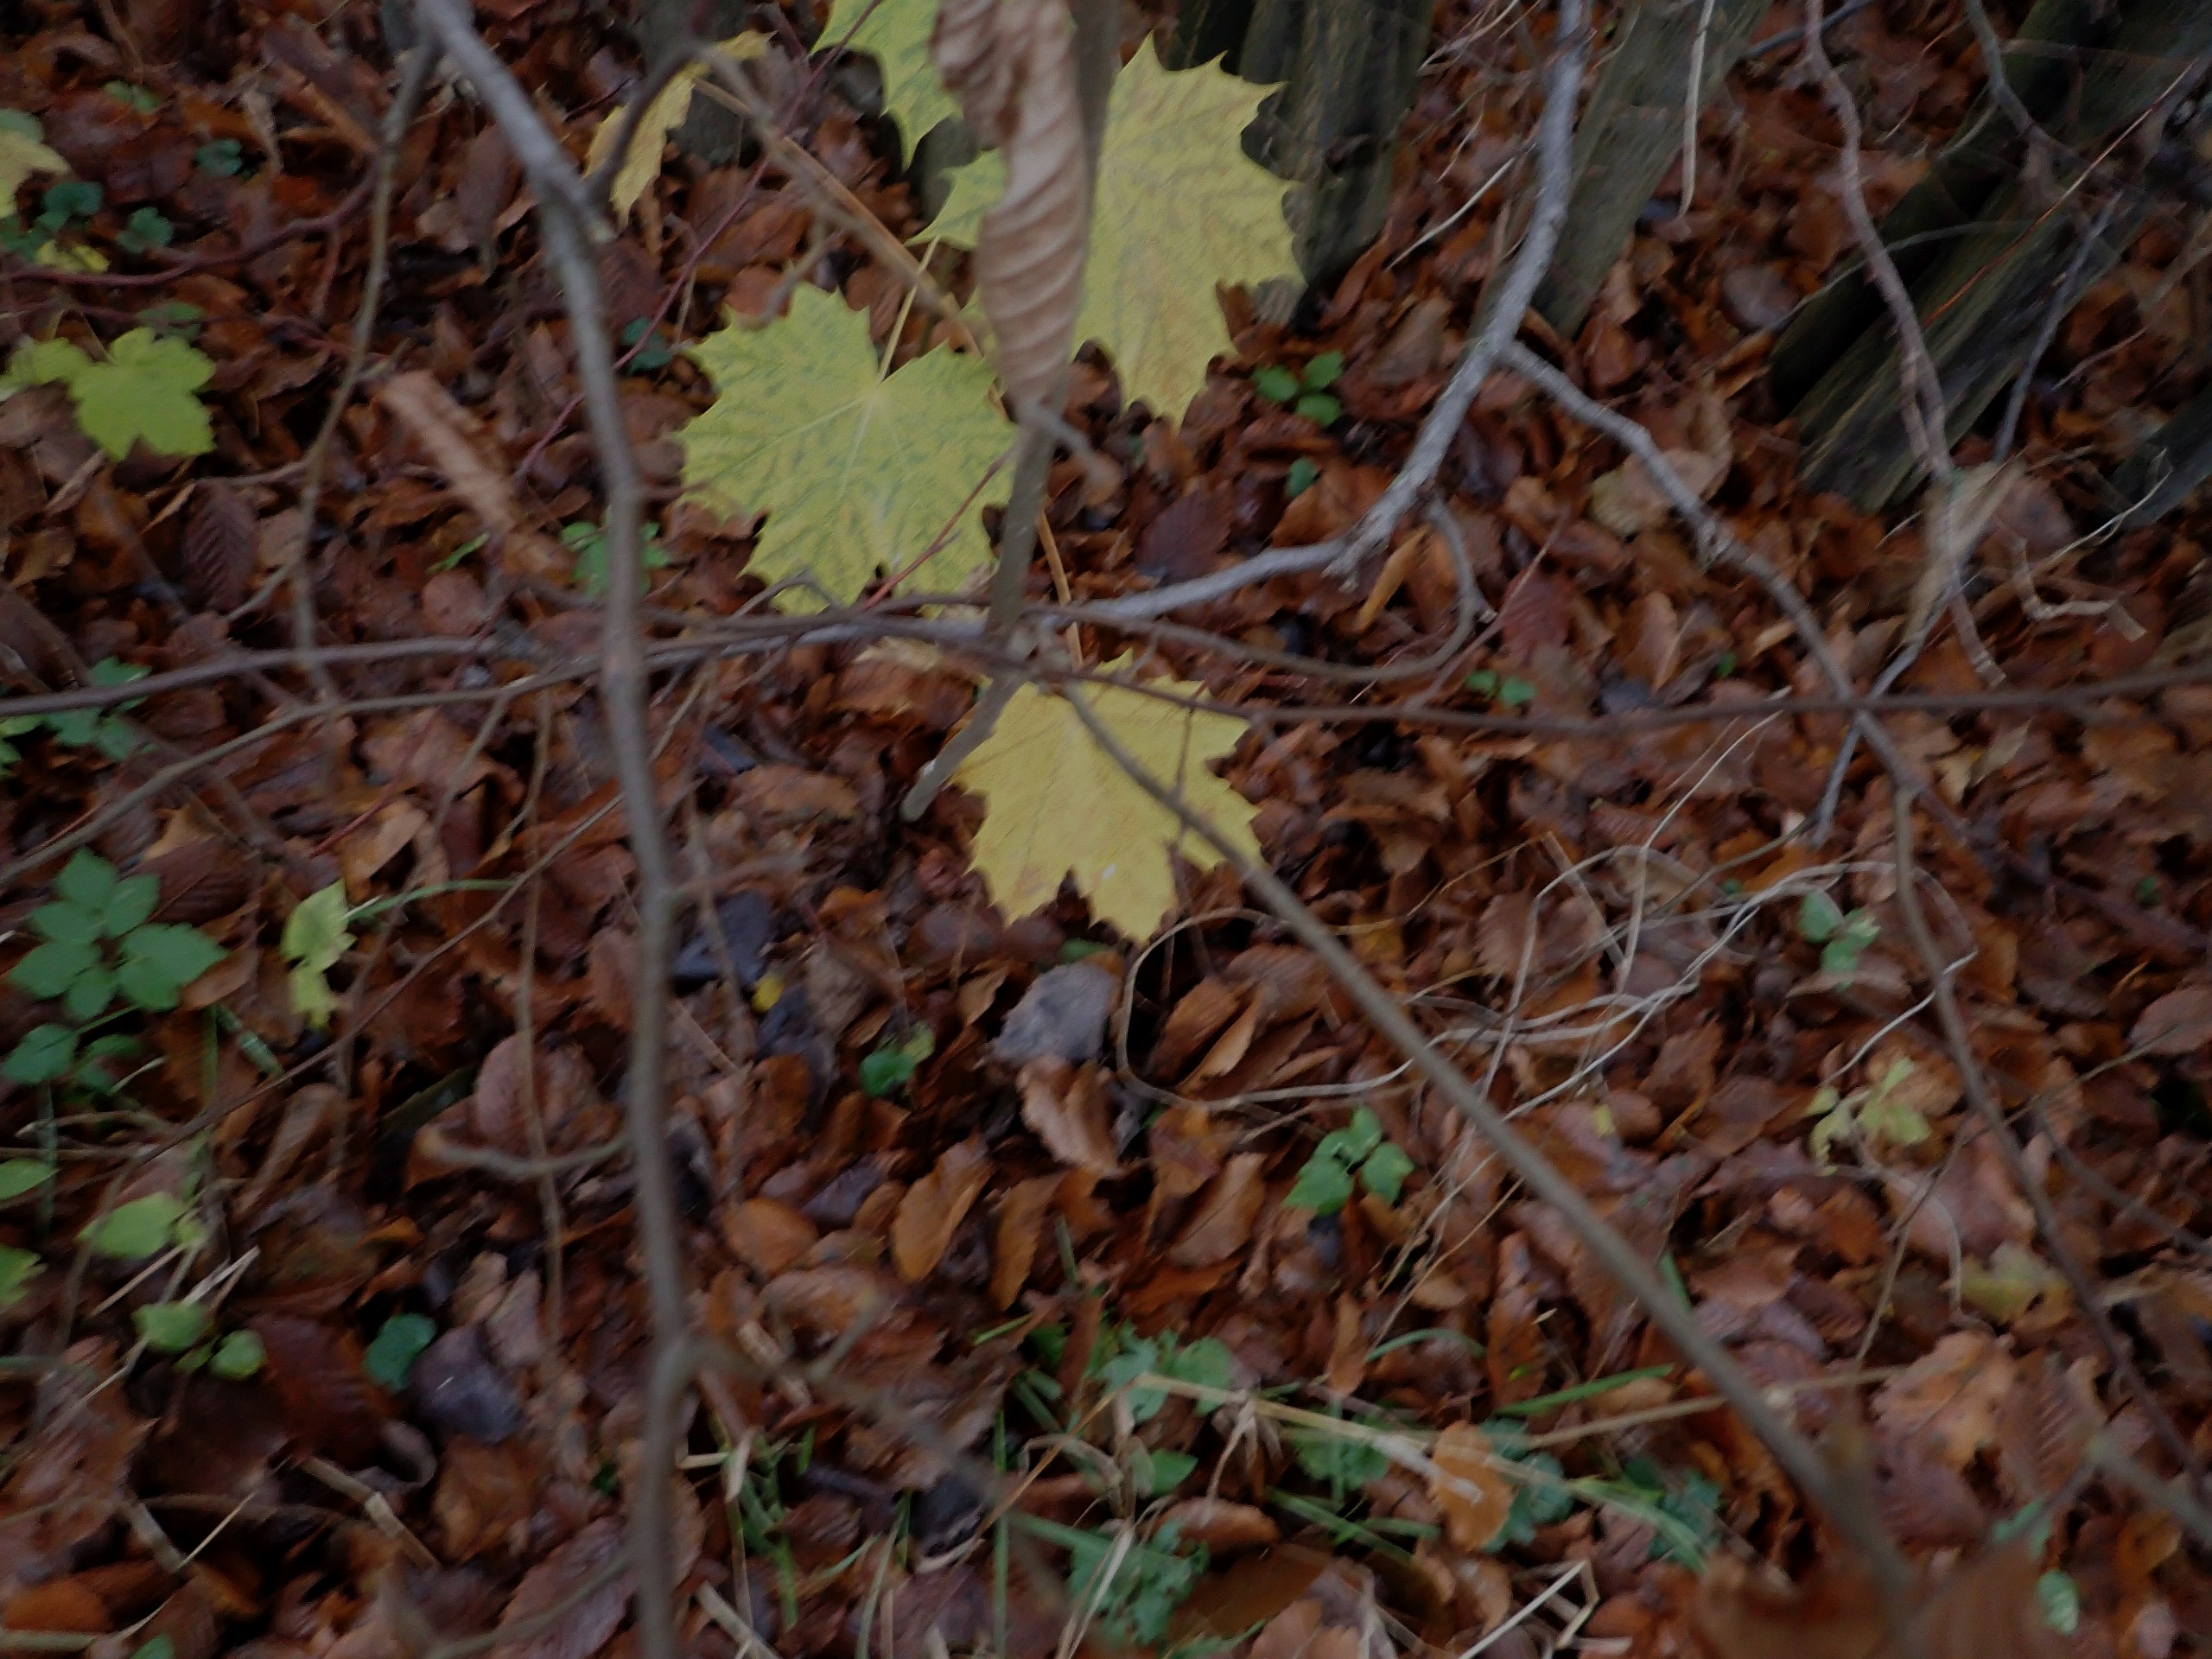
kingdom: Plantae
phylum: Tracheophyta
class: Magnoliopsida
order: Sapindales
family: Sapindaceae
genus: Acer
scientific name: Acer platanoides
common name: Spids-løn
